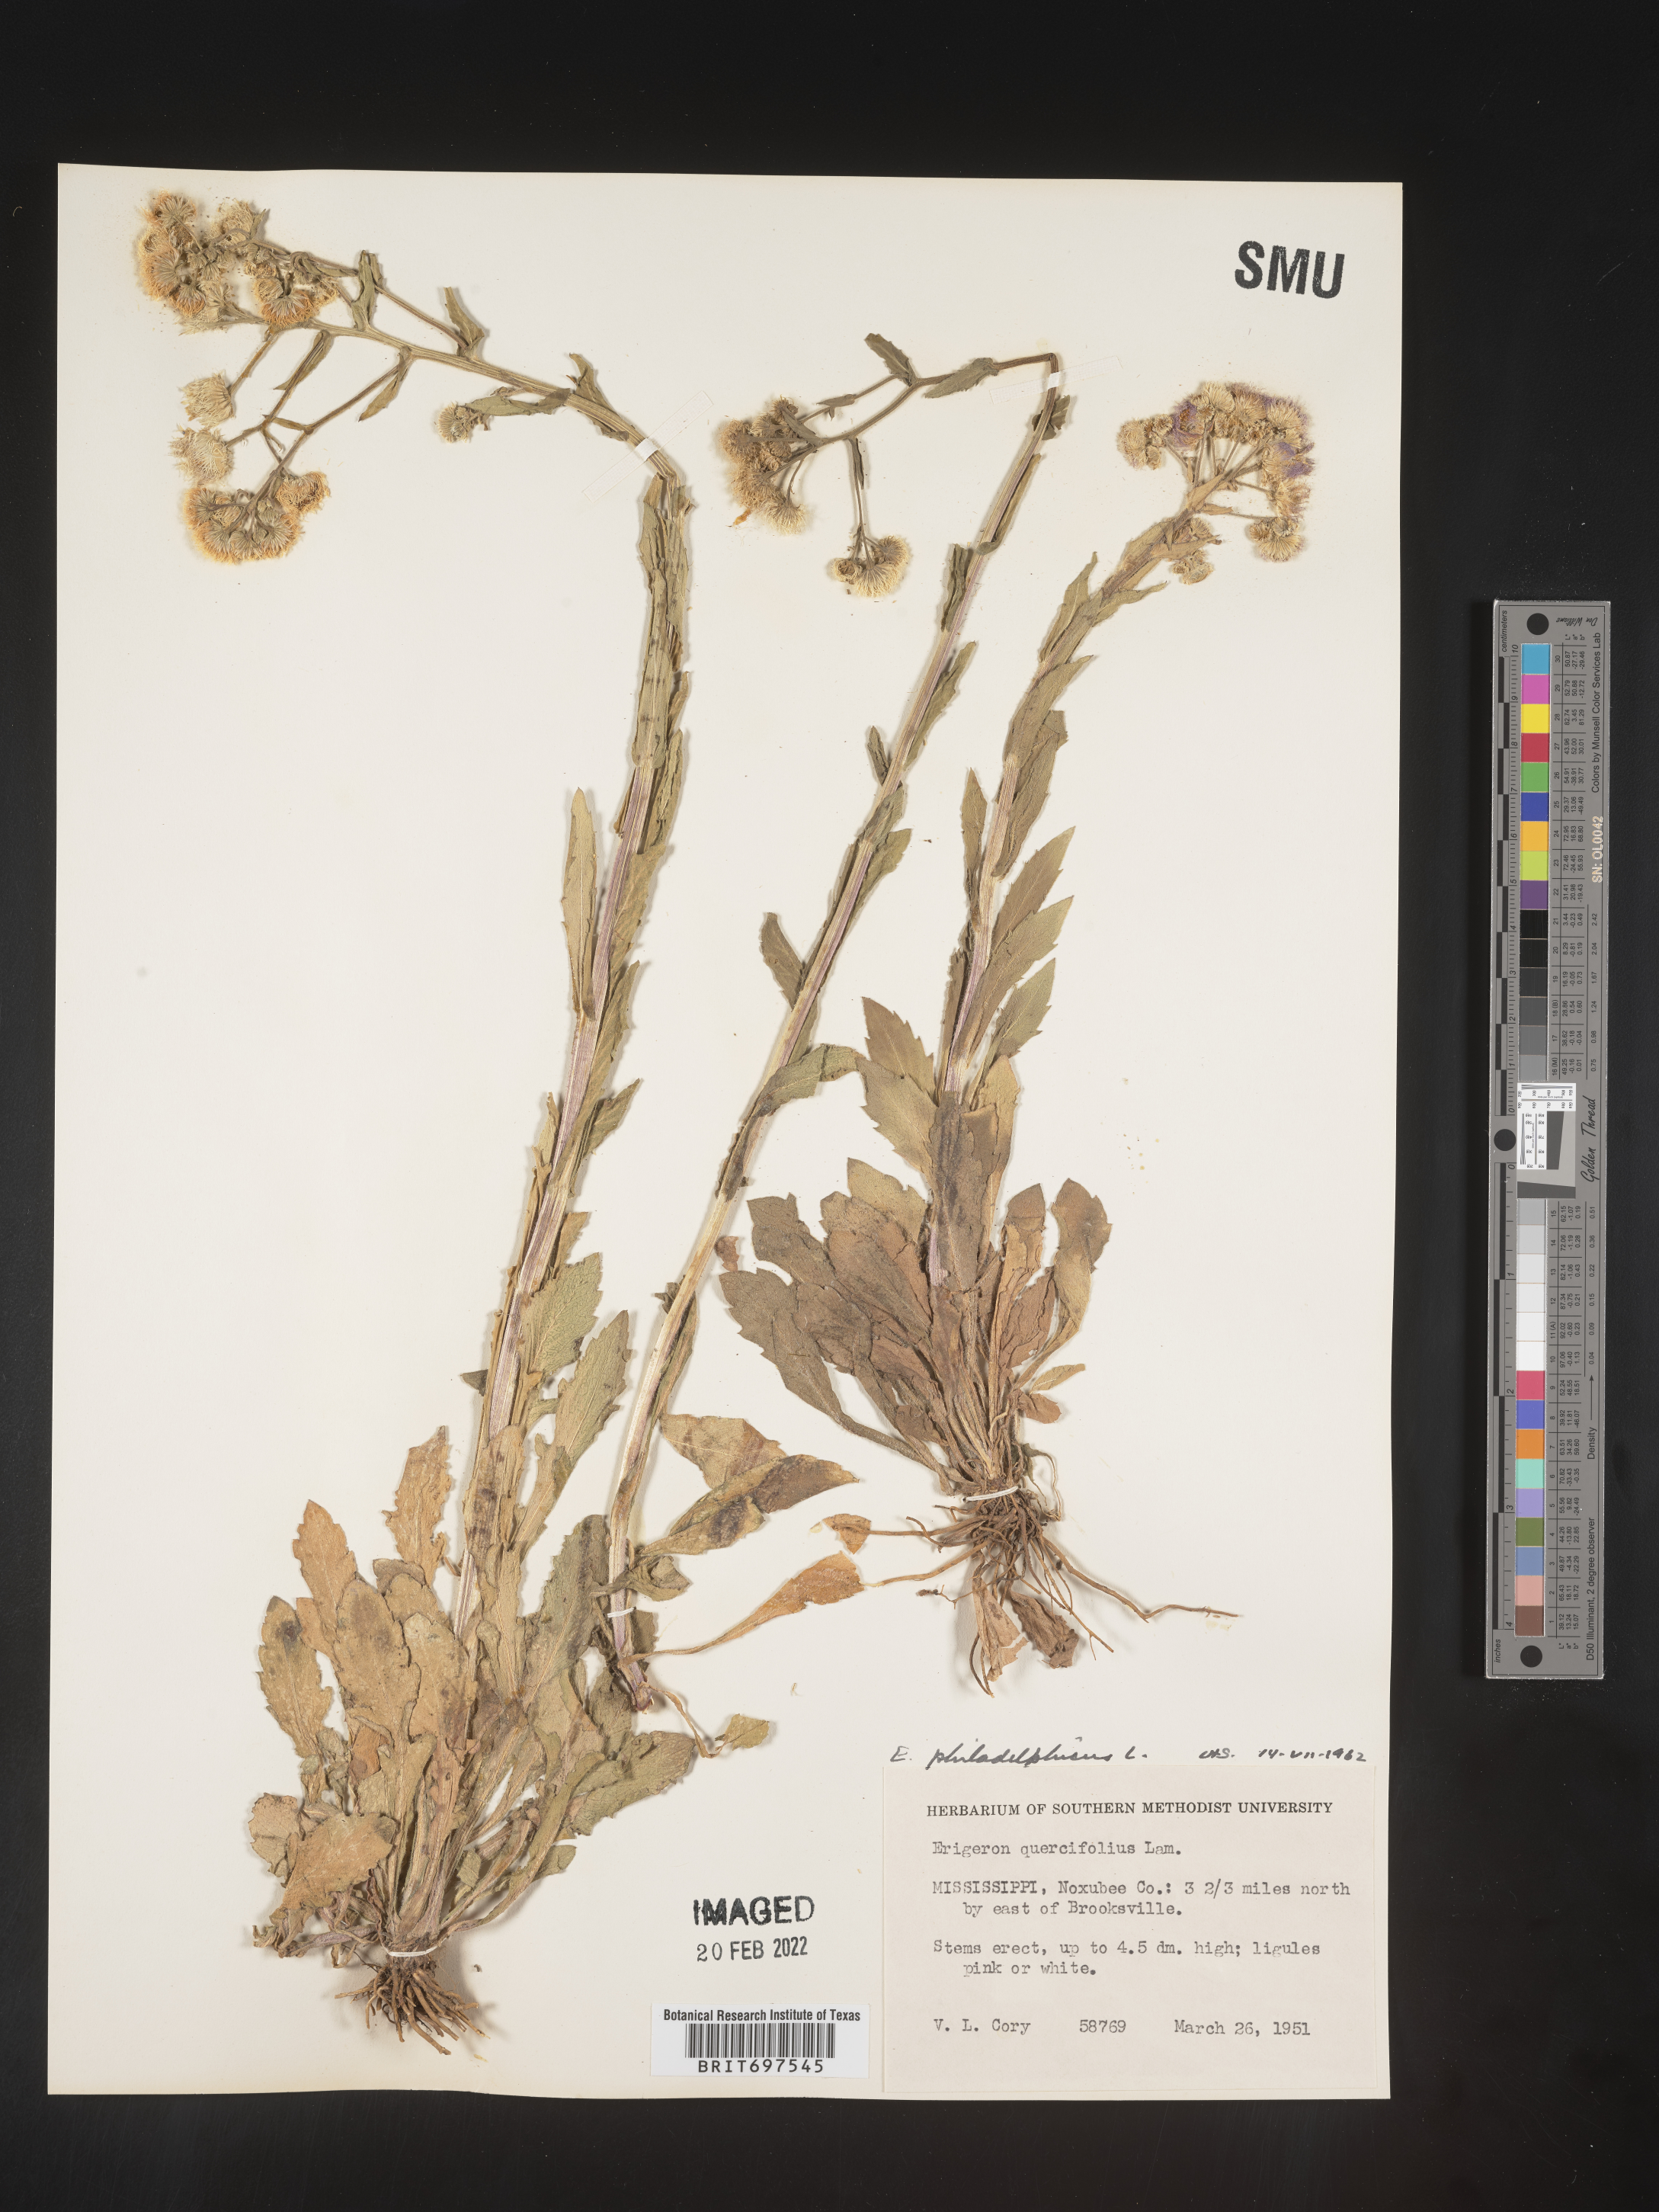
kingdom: Plantae
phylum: Tracheophyta
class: Magnoliopsida
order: Asterales
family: Asteraceae
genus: Erigeron
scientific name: Erigeron philadelphicus
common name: Robin's-plantain
